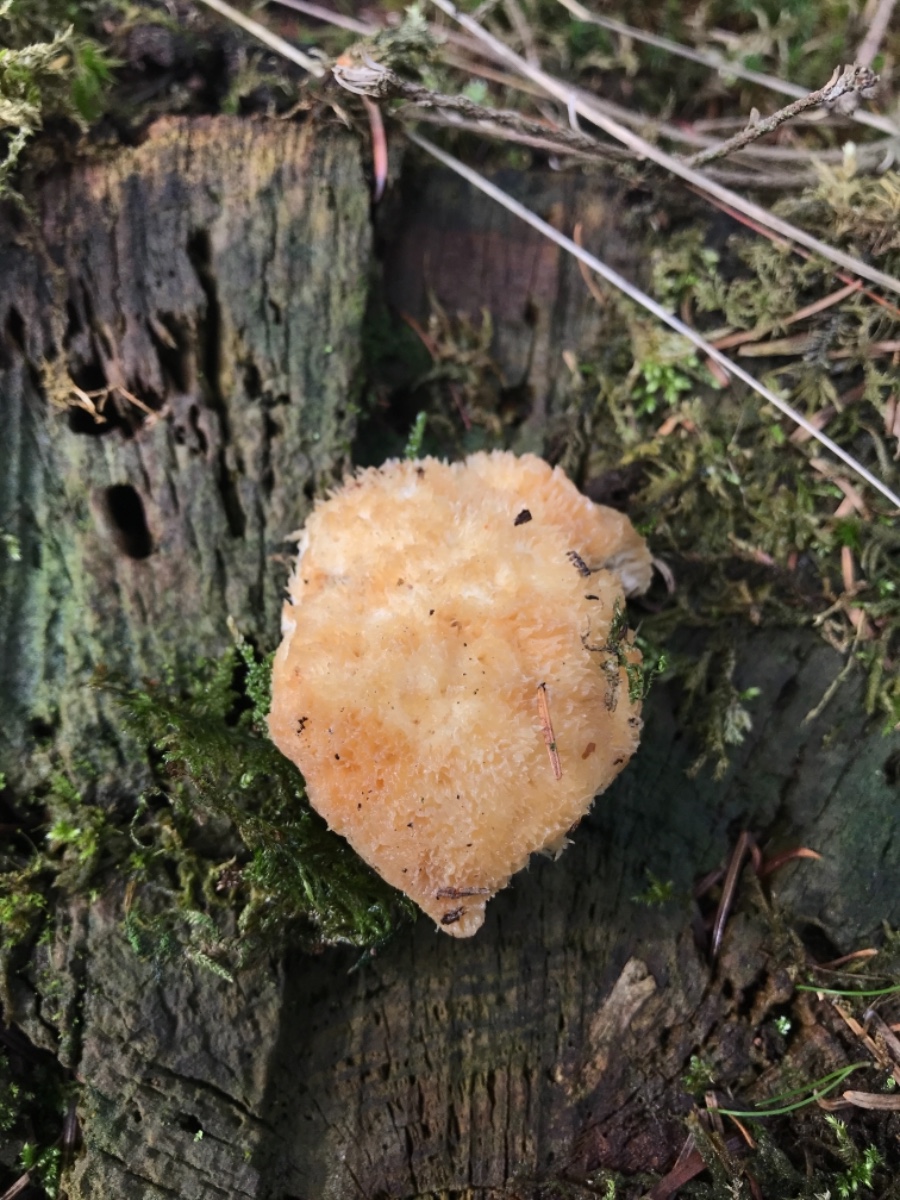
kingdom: Fungi
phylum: Basidiomycota
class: Agaricomycetes
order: Polyporales
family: Dacryobolaceae
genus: Postia
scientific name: Postia ptychogaster
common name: støvende kødporesvamp
